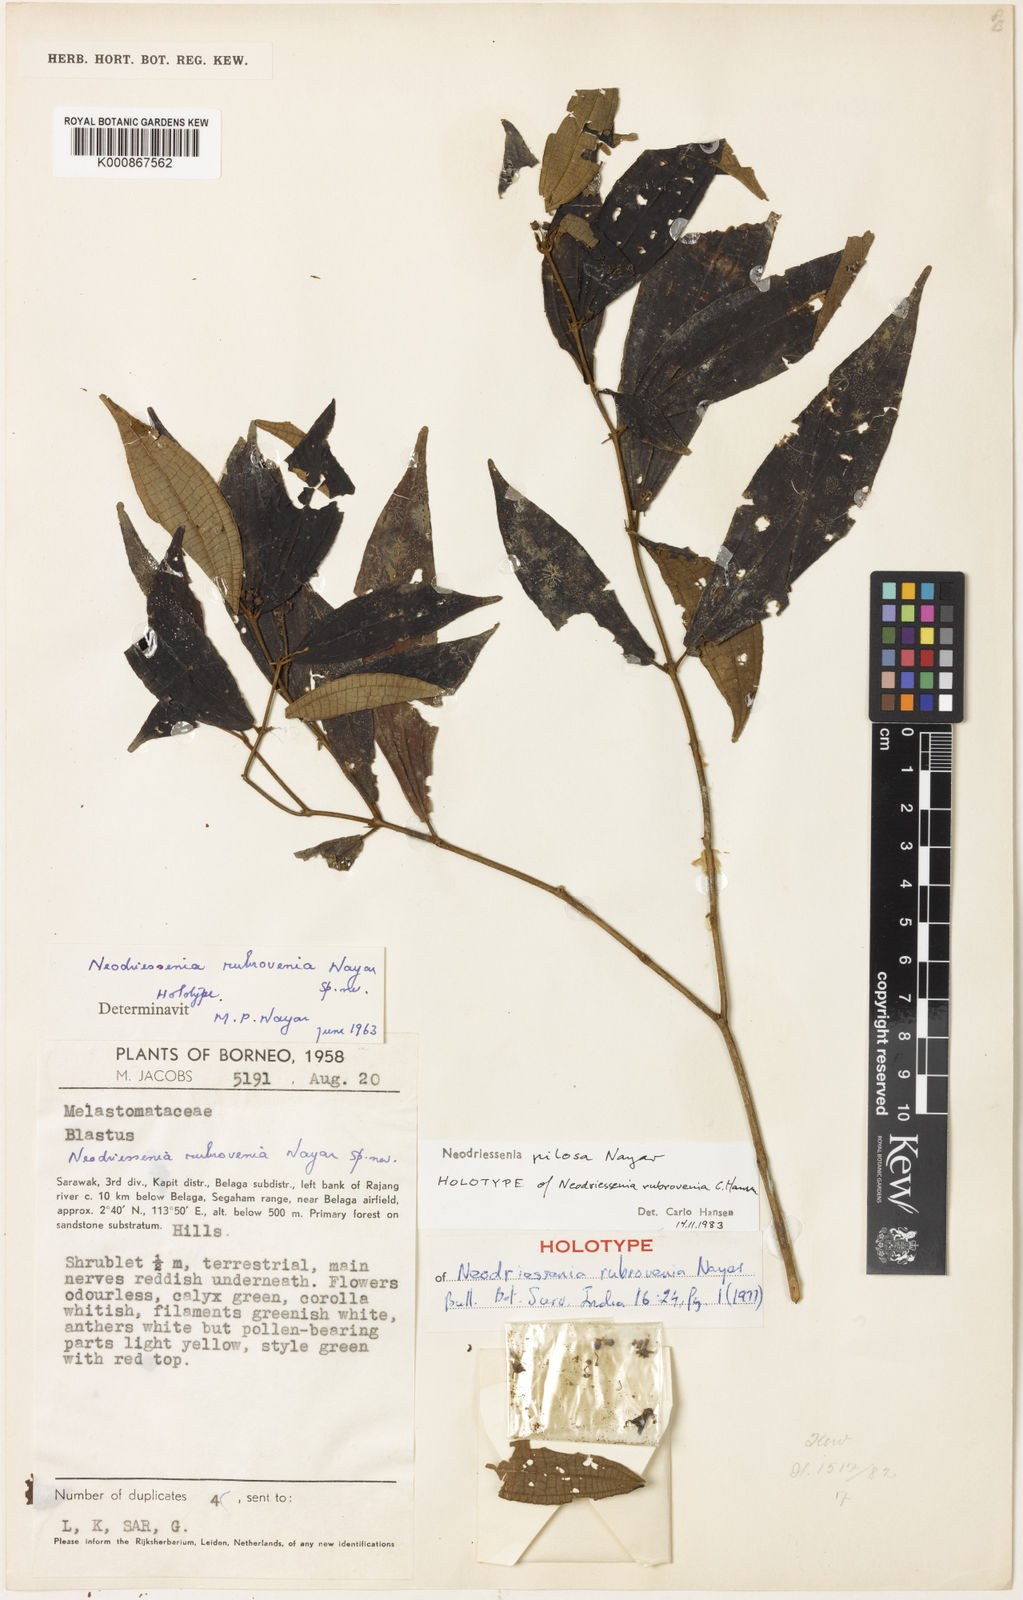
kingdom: Plantae
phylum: Tracheophyta
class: Magnoliopsida
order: Myrtales
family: Melastomataceae
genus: Neodriessenia
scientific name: Neodriessenia pilosa
